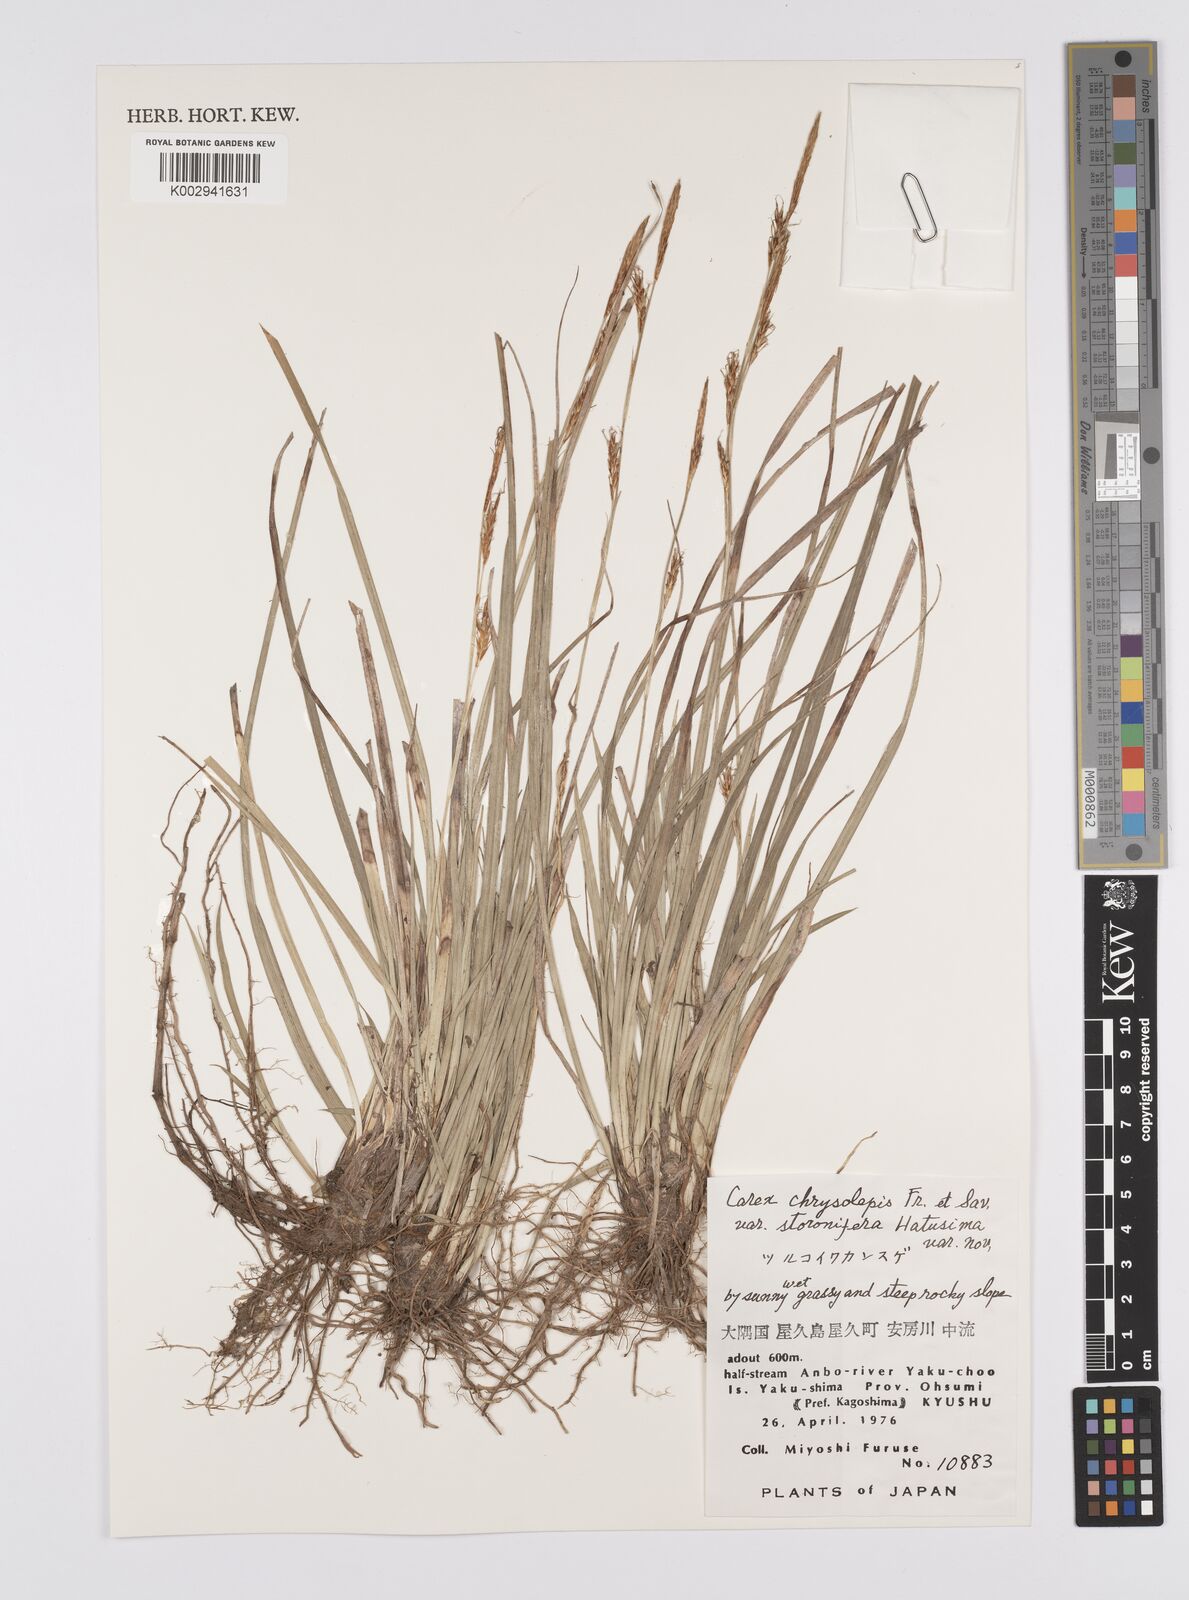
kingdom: Plantae
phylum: Tracheophyta
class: Liliopsida
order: Poales
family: Cyperaceae
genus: Carex
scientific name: Carex chrysolepis
